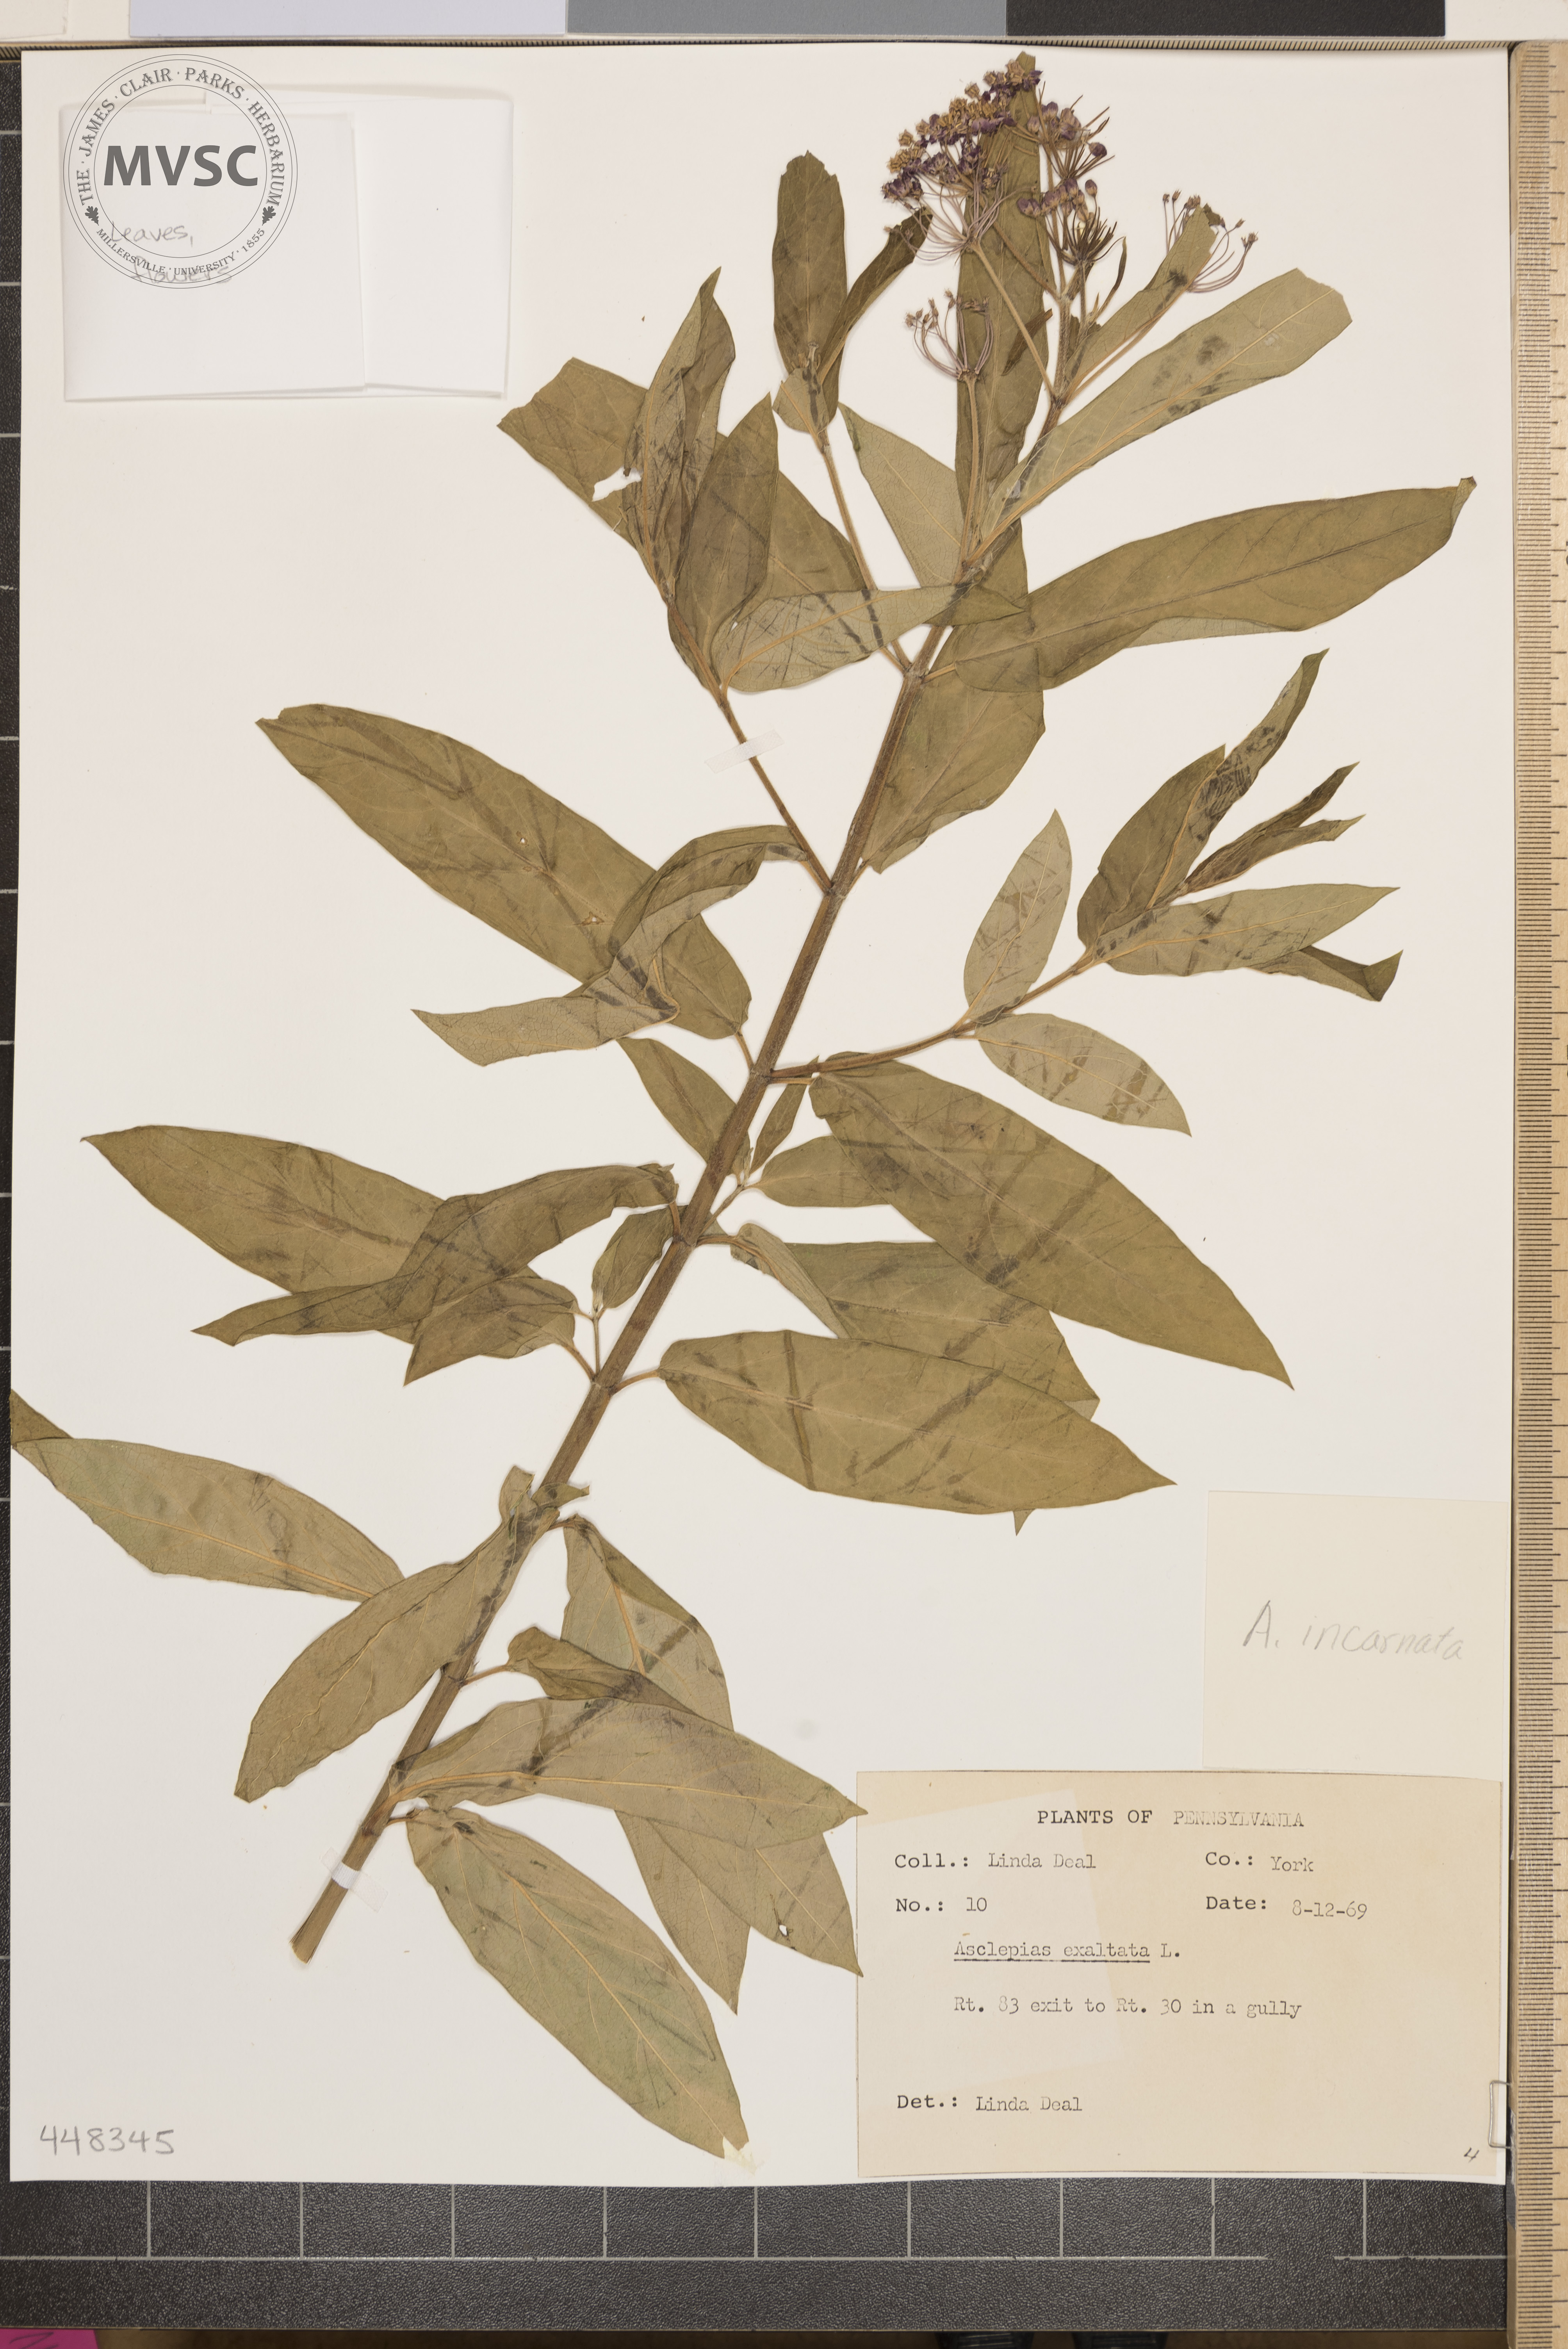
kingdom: Plantae
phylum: Tracheophyta
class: Magnoliopsida
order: Gentianales
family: Apocynaceae
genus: Asclepias
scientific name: Asclepias incarnata
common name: Swamp milkweed
